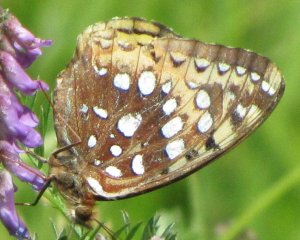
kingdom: Animalia
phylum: Arthropoda
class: Insecta
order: Lepidoptera
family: Nymphalidae
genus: Speyeria
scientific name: Speyeria cybele
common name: Great Spangled Fritillary
